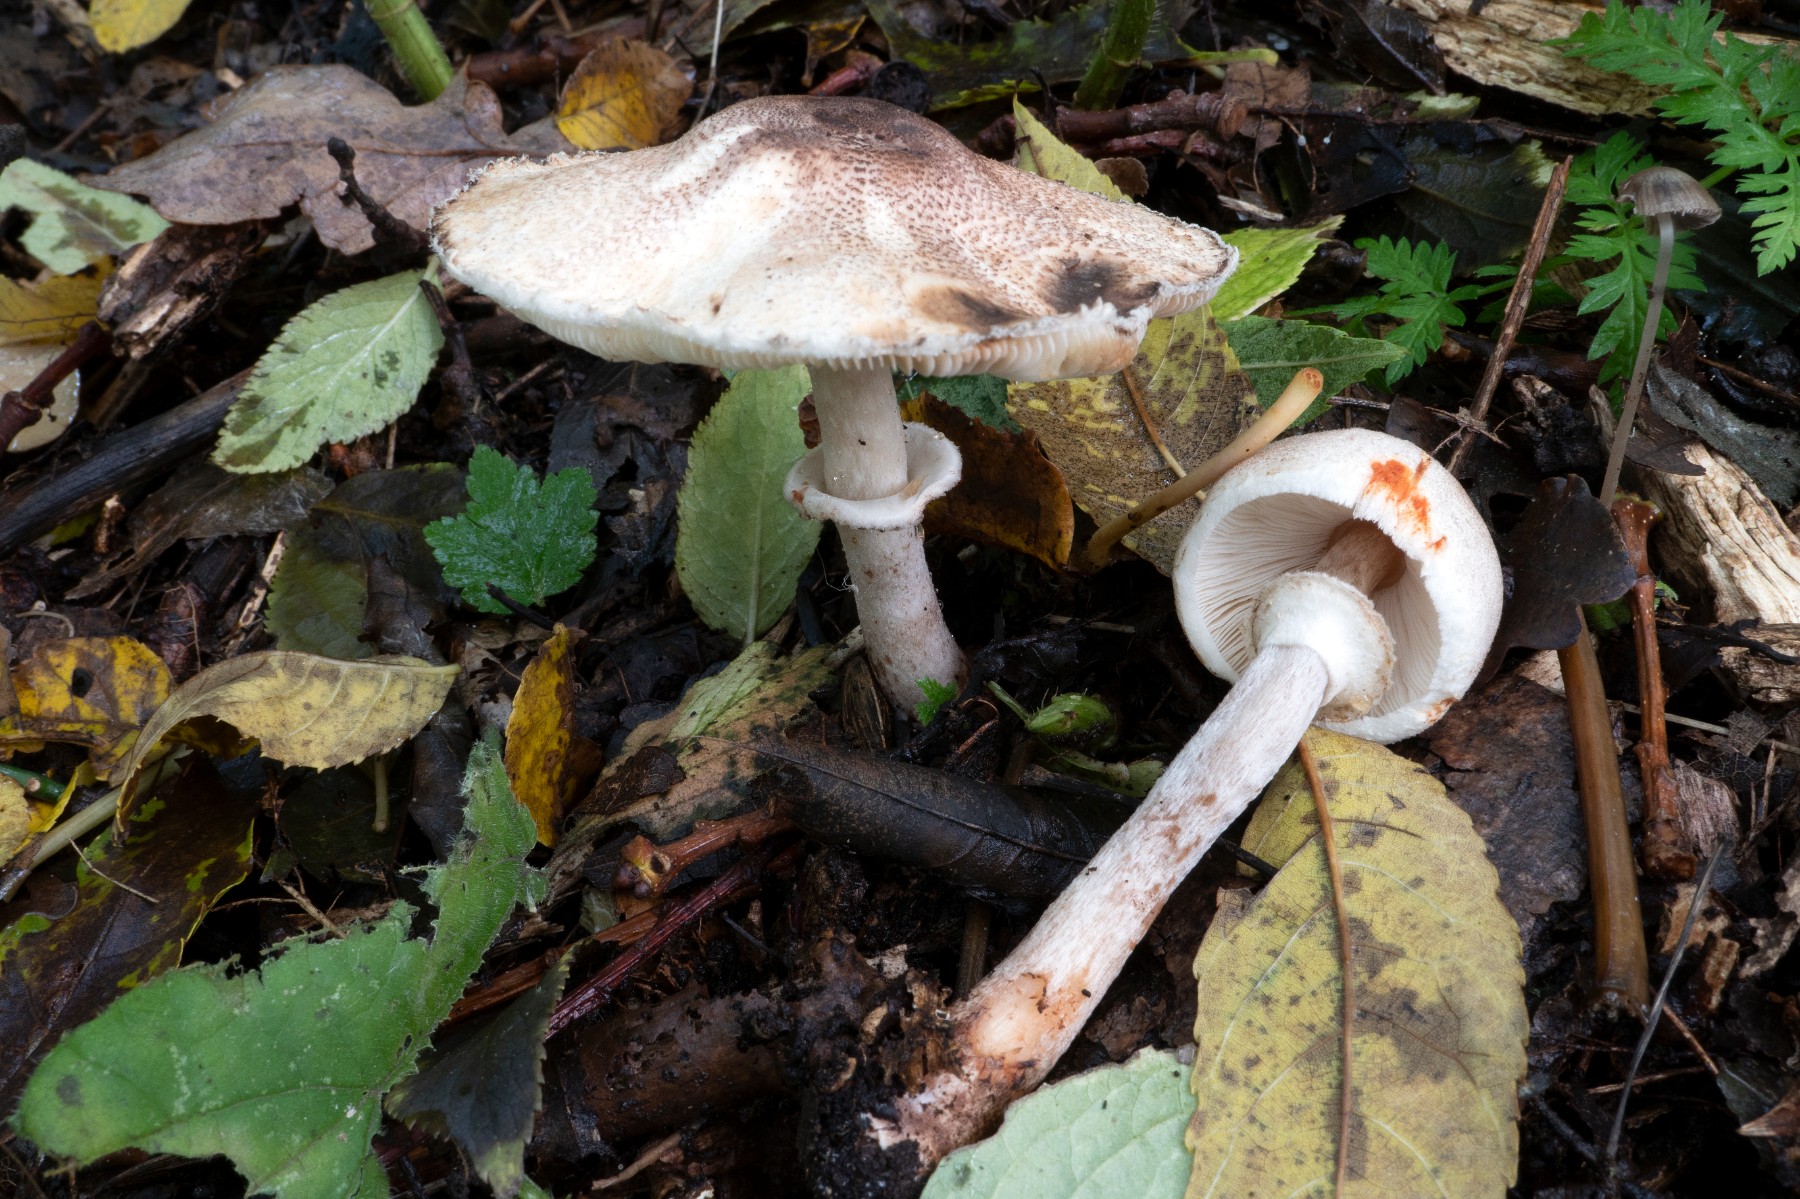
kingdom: Fungi
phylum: Basidiomycota
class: Agaricomycetes
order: Agaricales
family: Agaricaceae
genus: Leucoagaricus
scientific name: Leucoagaricus badhamii
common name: rødmende silkehat
